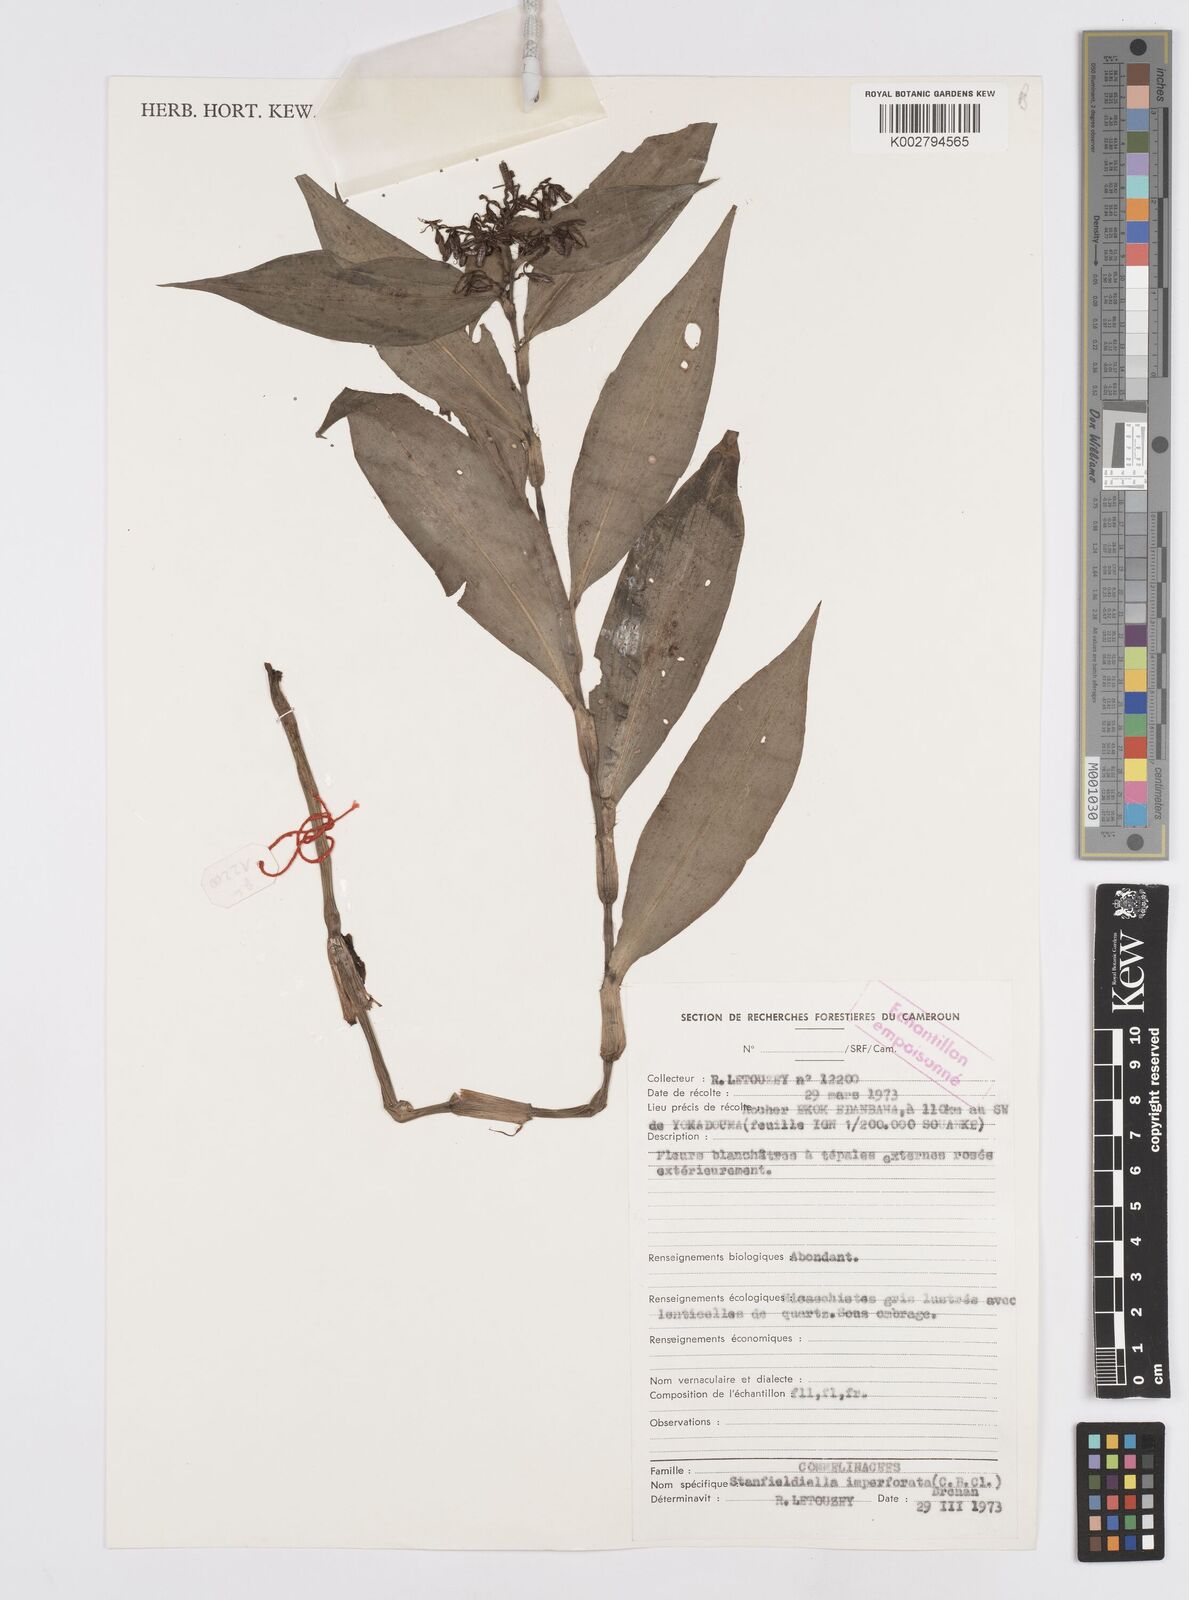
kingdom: Plantae
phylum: Tracheophyta
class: Liliopsida
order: Commelinales
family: Commelinaceae
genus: Stanfieldiella
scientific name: Stanfieldiella imperforata
